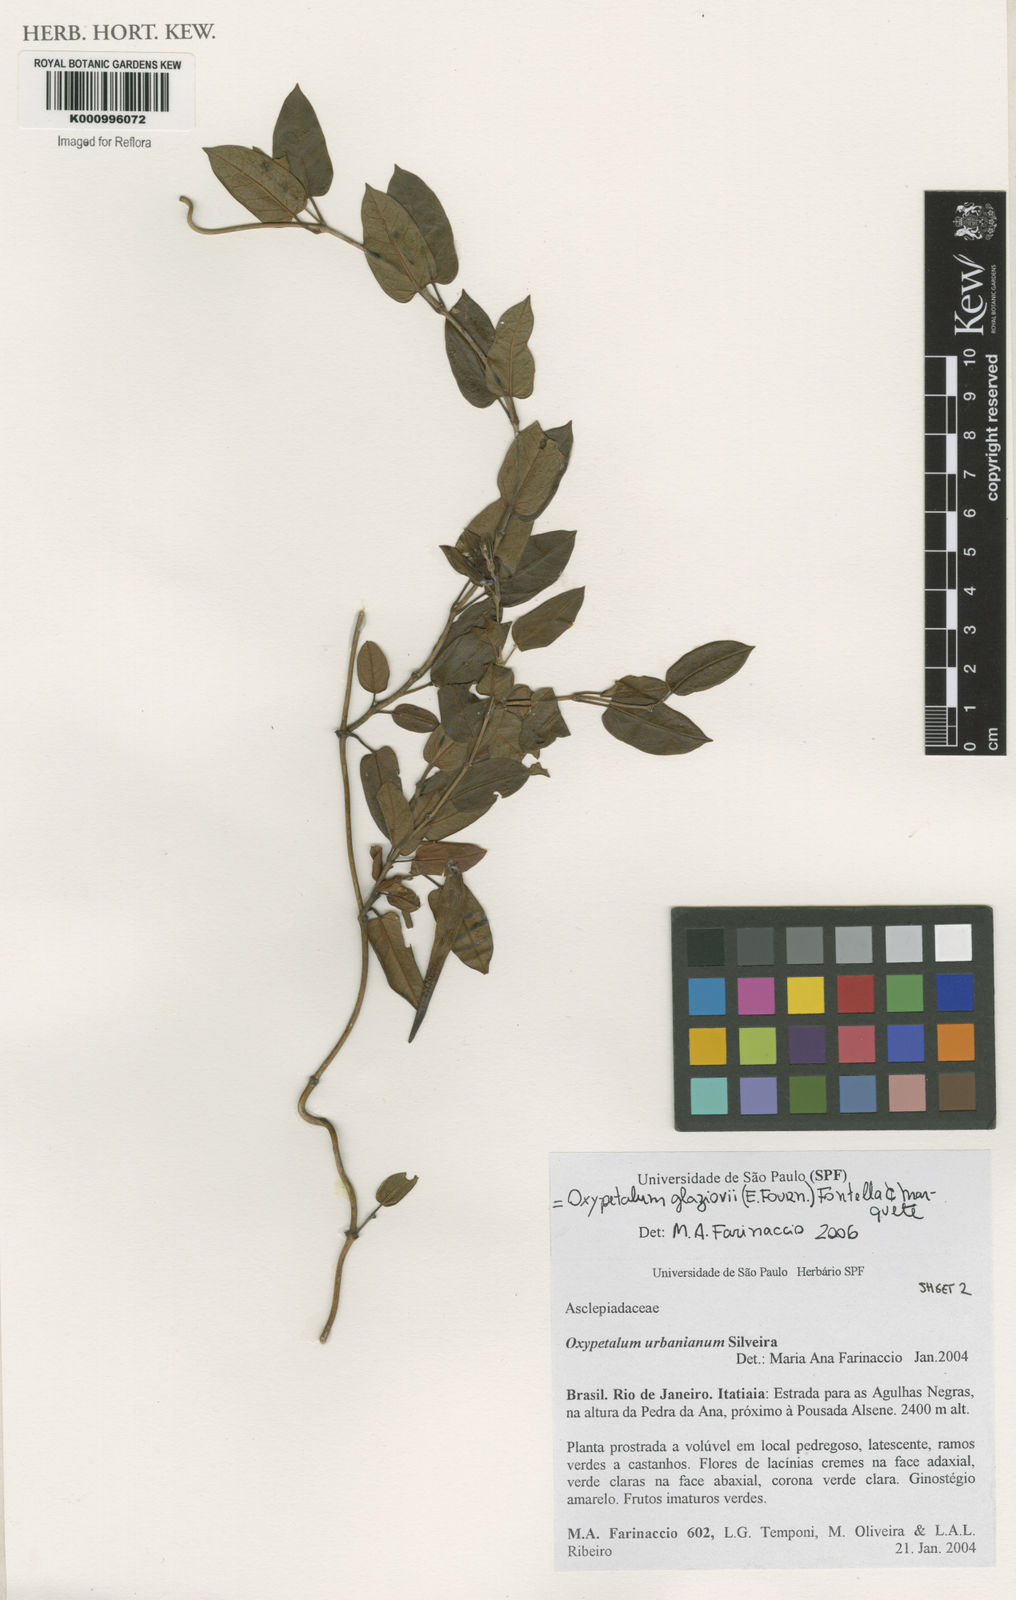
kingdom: Plantae
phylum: Tracheophyta
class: Magnoliopsida
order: Gentianales
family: Apocynaceae
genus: Oxypetalum
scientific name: Oxypetalum insigne
